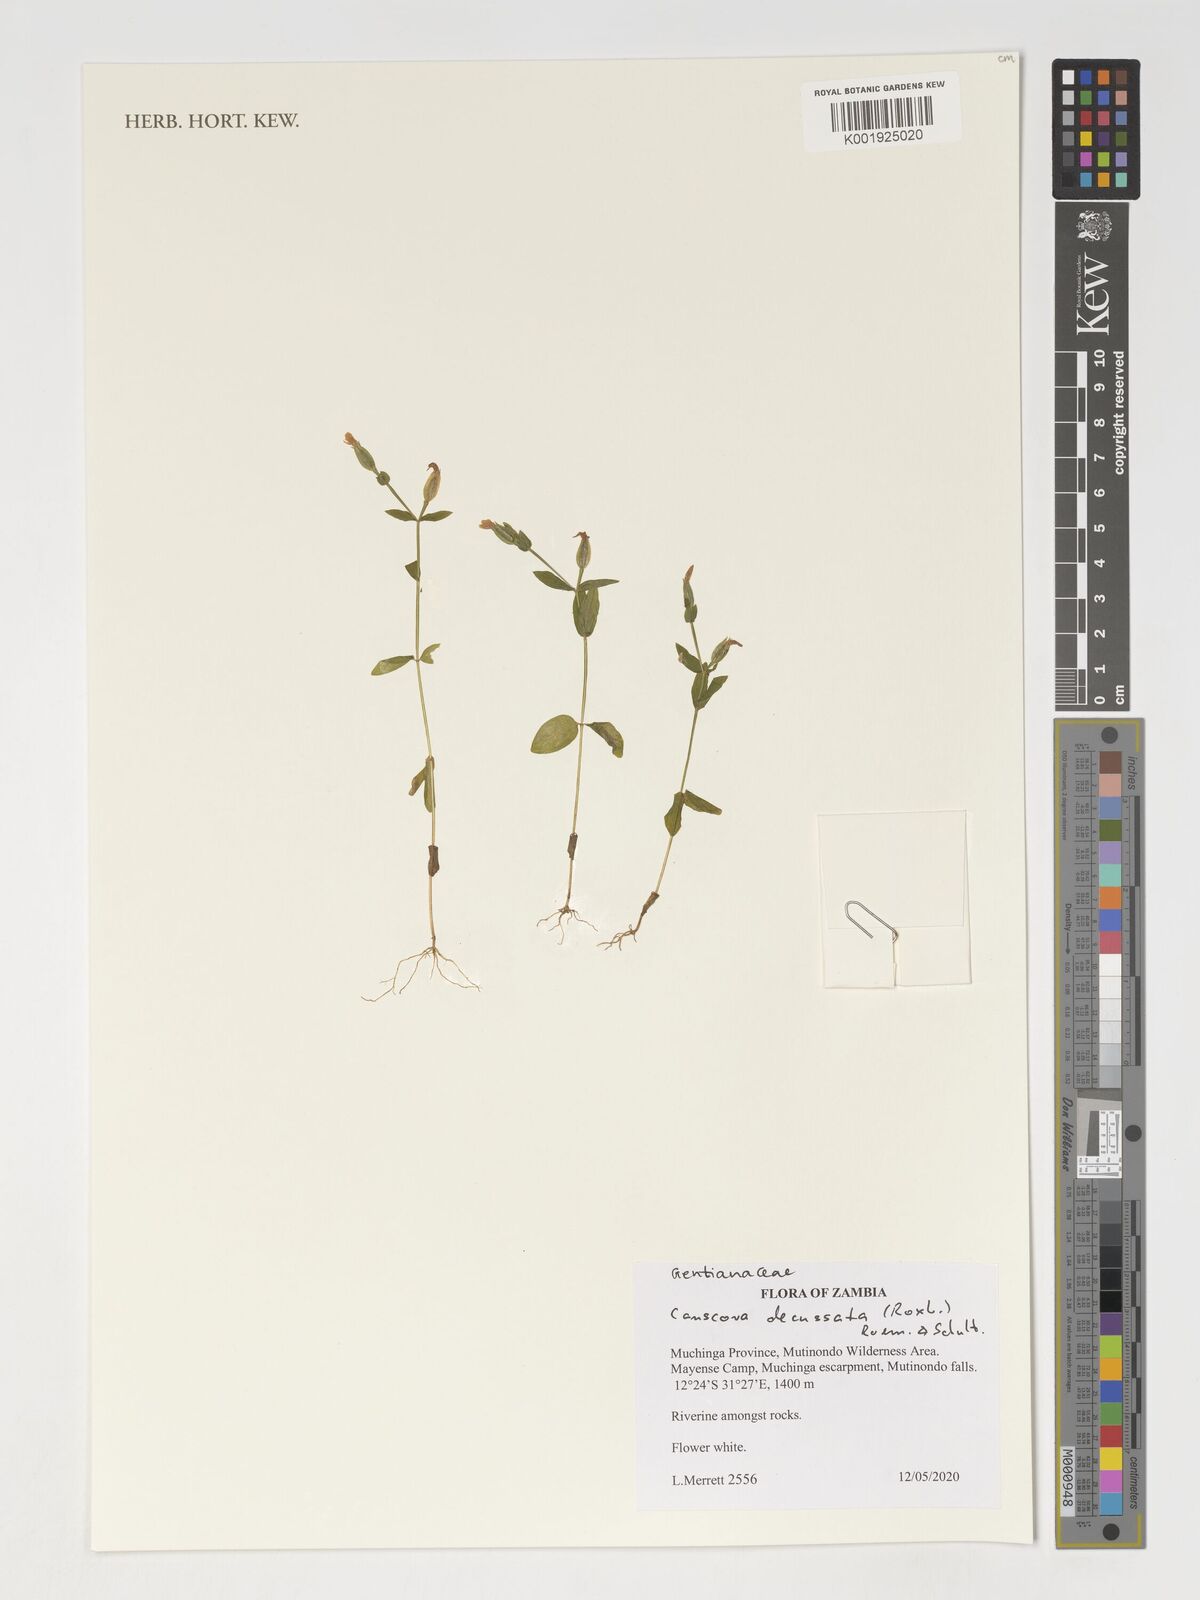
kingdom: Plantae
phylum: Tracheophyta
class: Magnoliopsida
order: Gentianales
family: Gentianaceae
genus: Canscora
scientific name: Canscora alata
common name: Canscora
